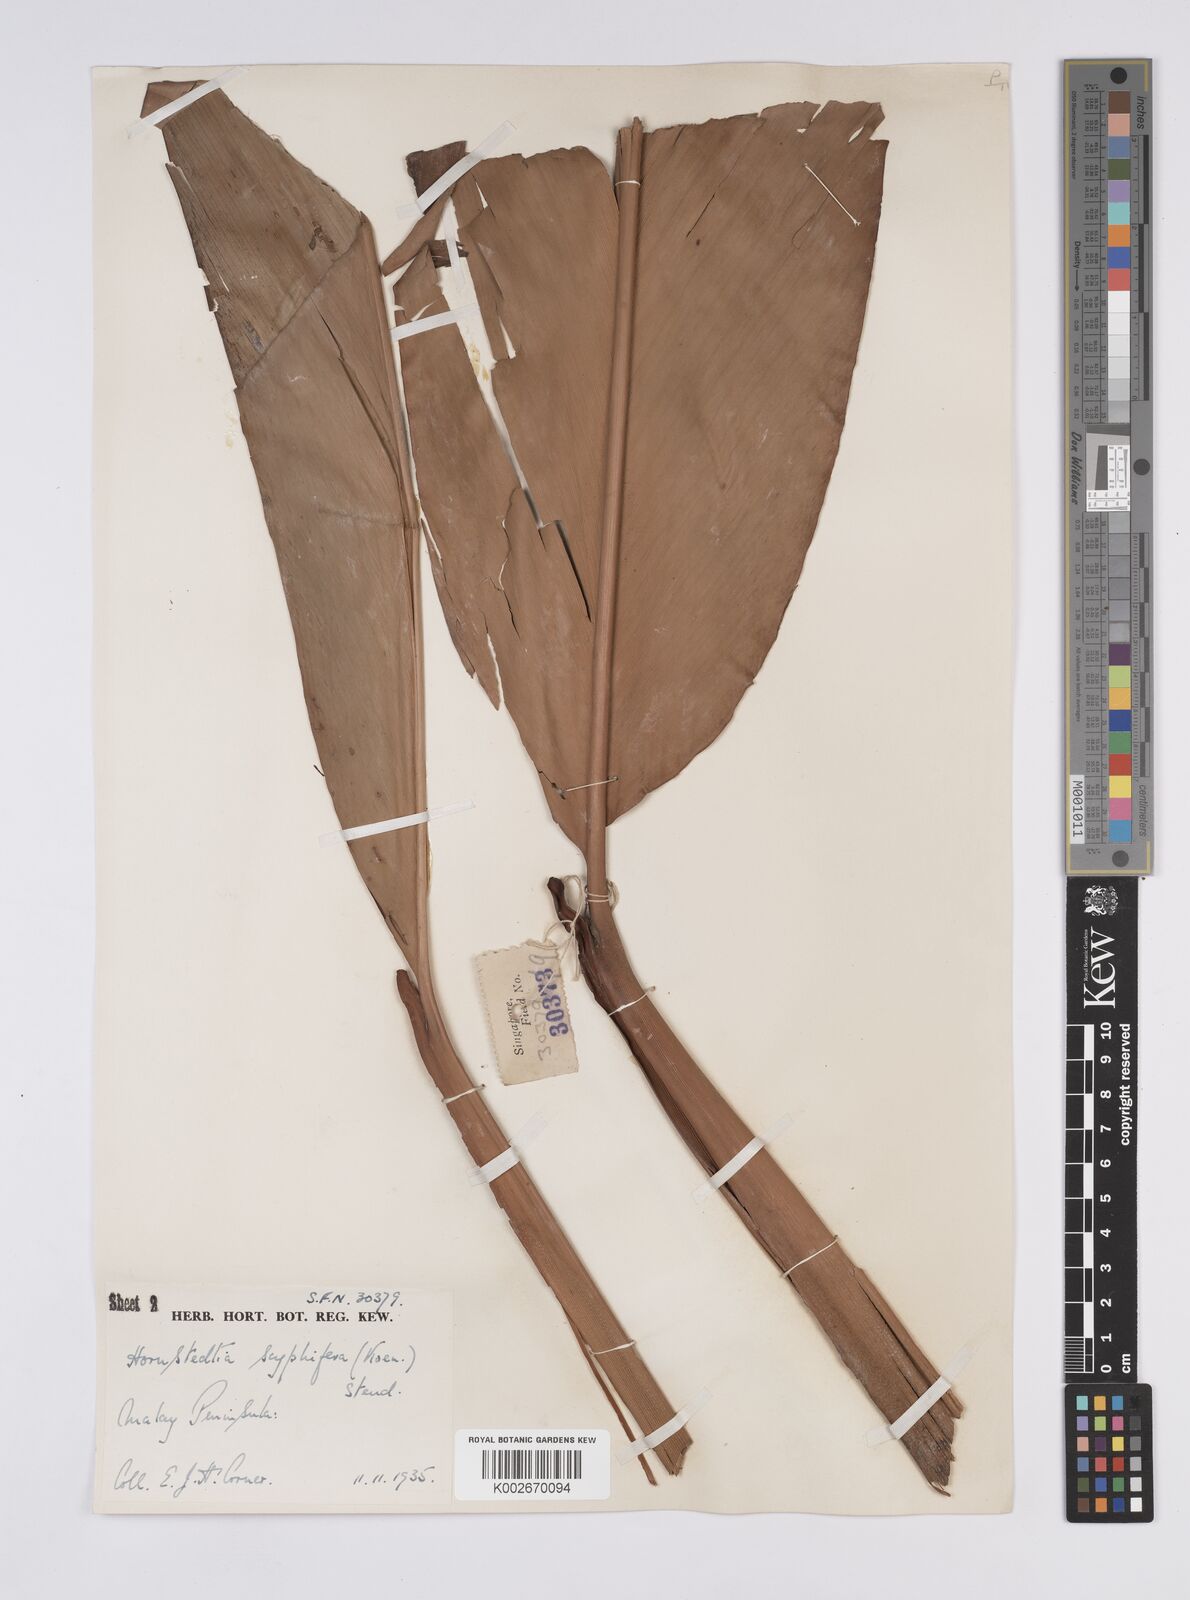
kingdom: Plantae
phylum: Tracheophyta
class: Liliopsida
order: Zingiberales
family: Zingiberaceae
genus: Hornstedtia
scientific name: Hornstedtia scyphifera
